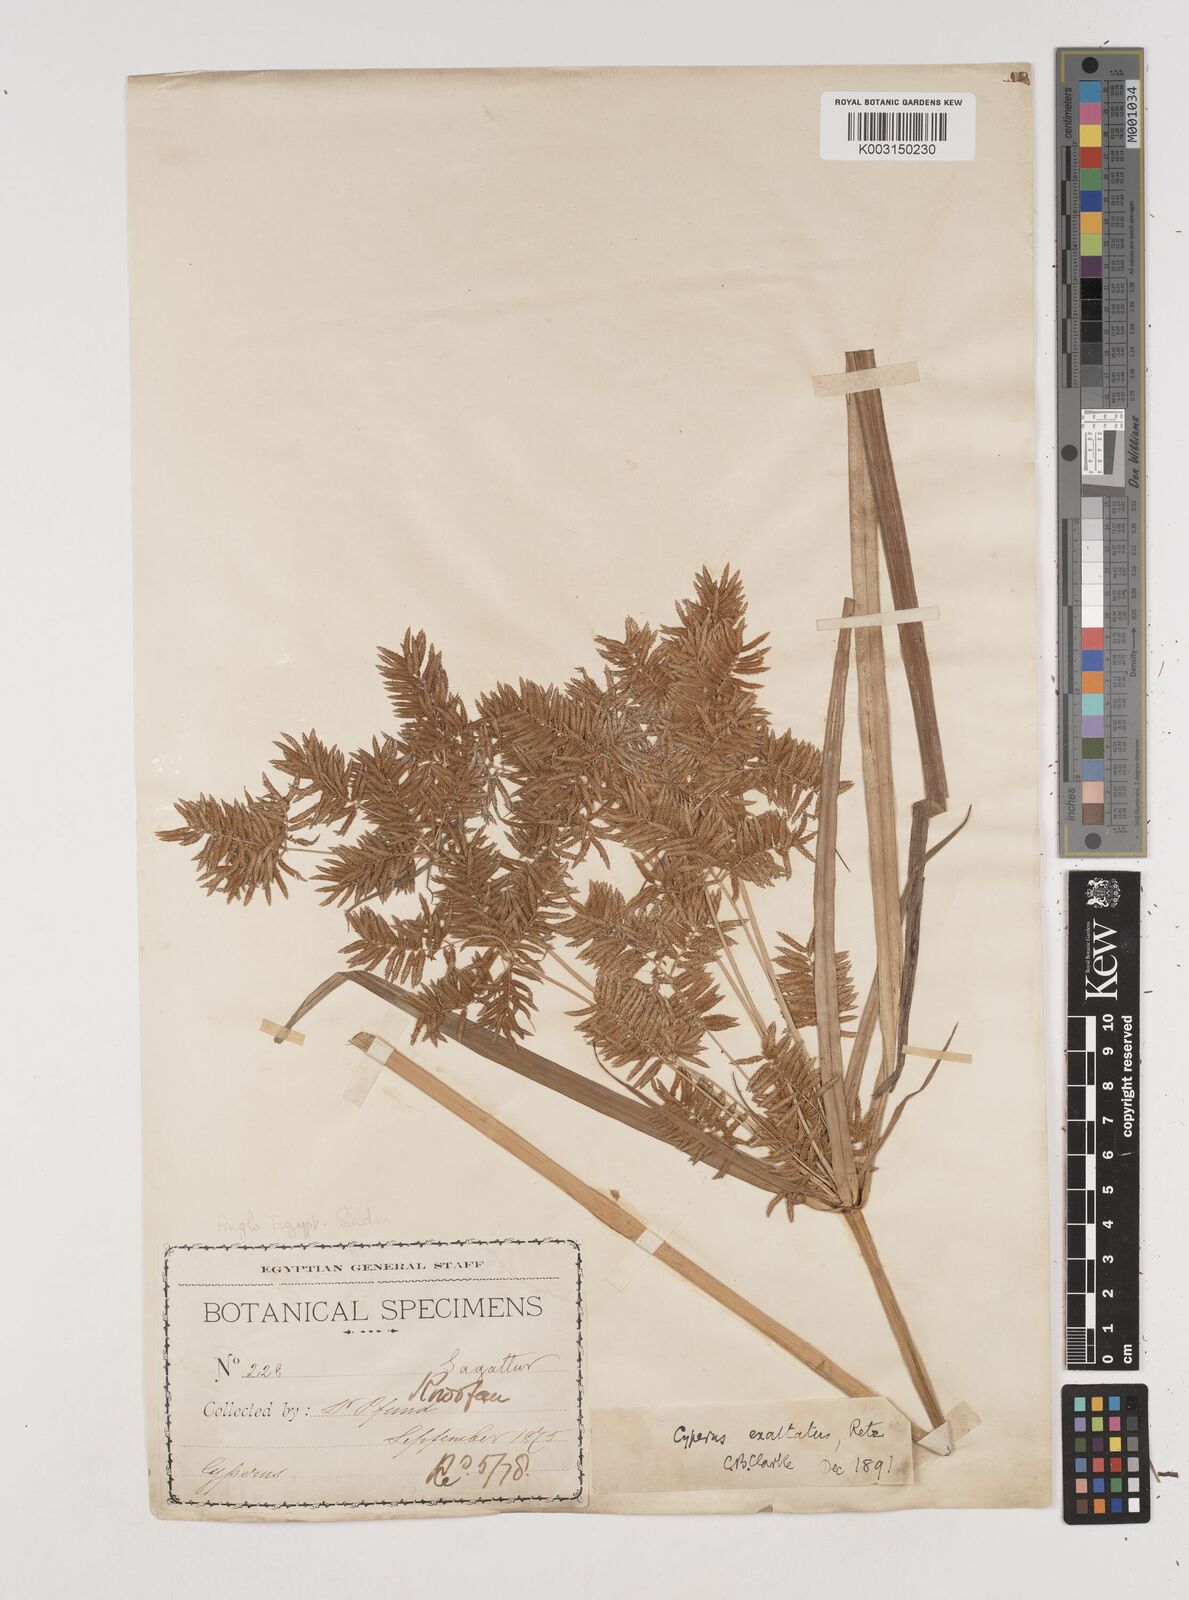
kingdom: Plantae
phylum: Tracheophyta
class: Liliopsida
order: Poales
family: Cyperaceae
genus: Cyperus
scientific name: Cyperus exaltatus
